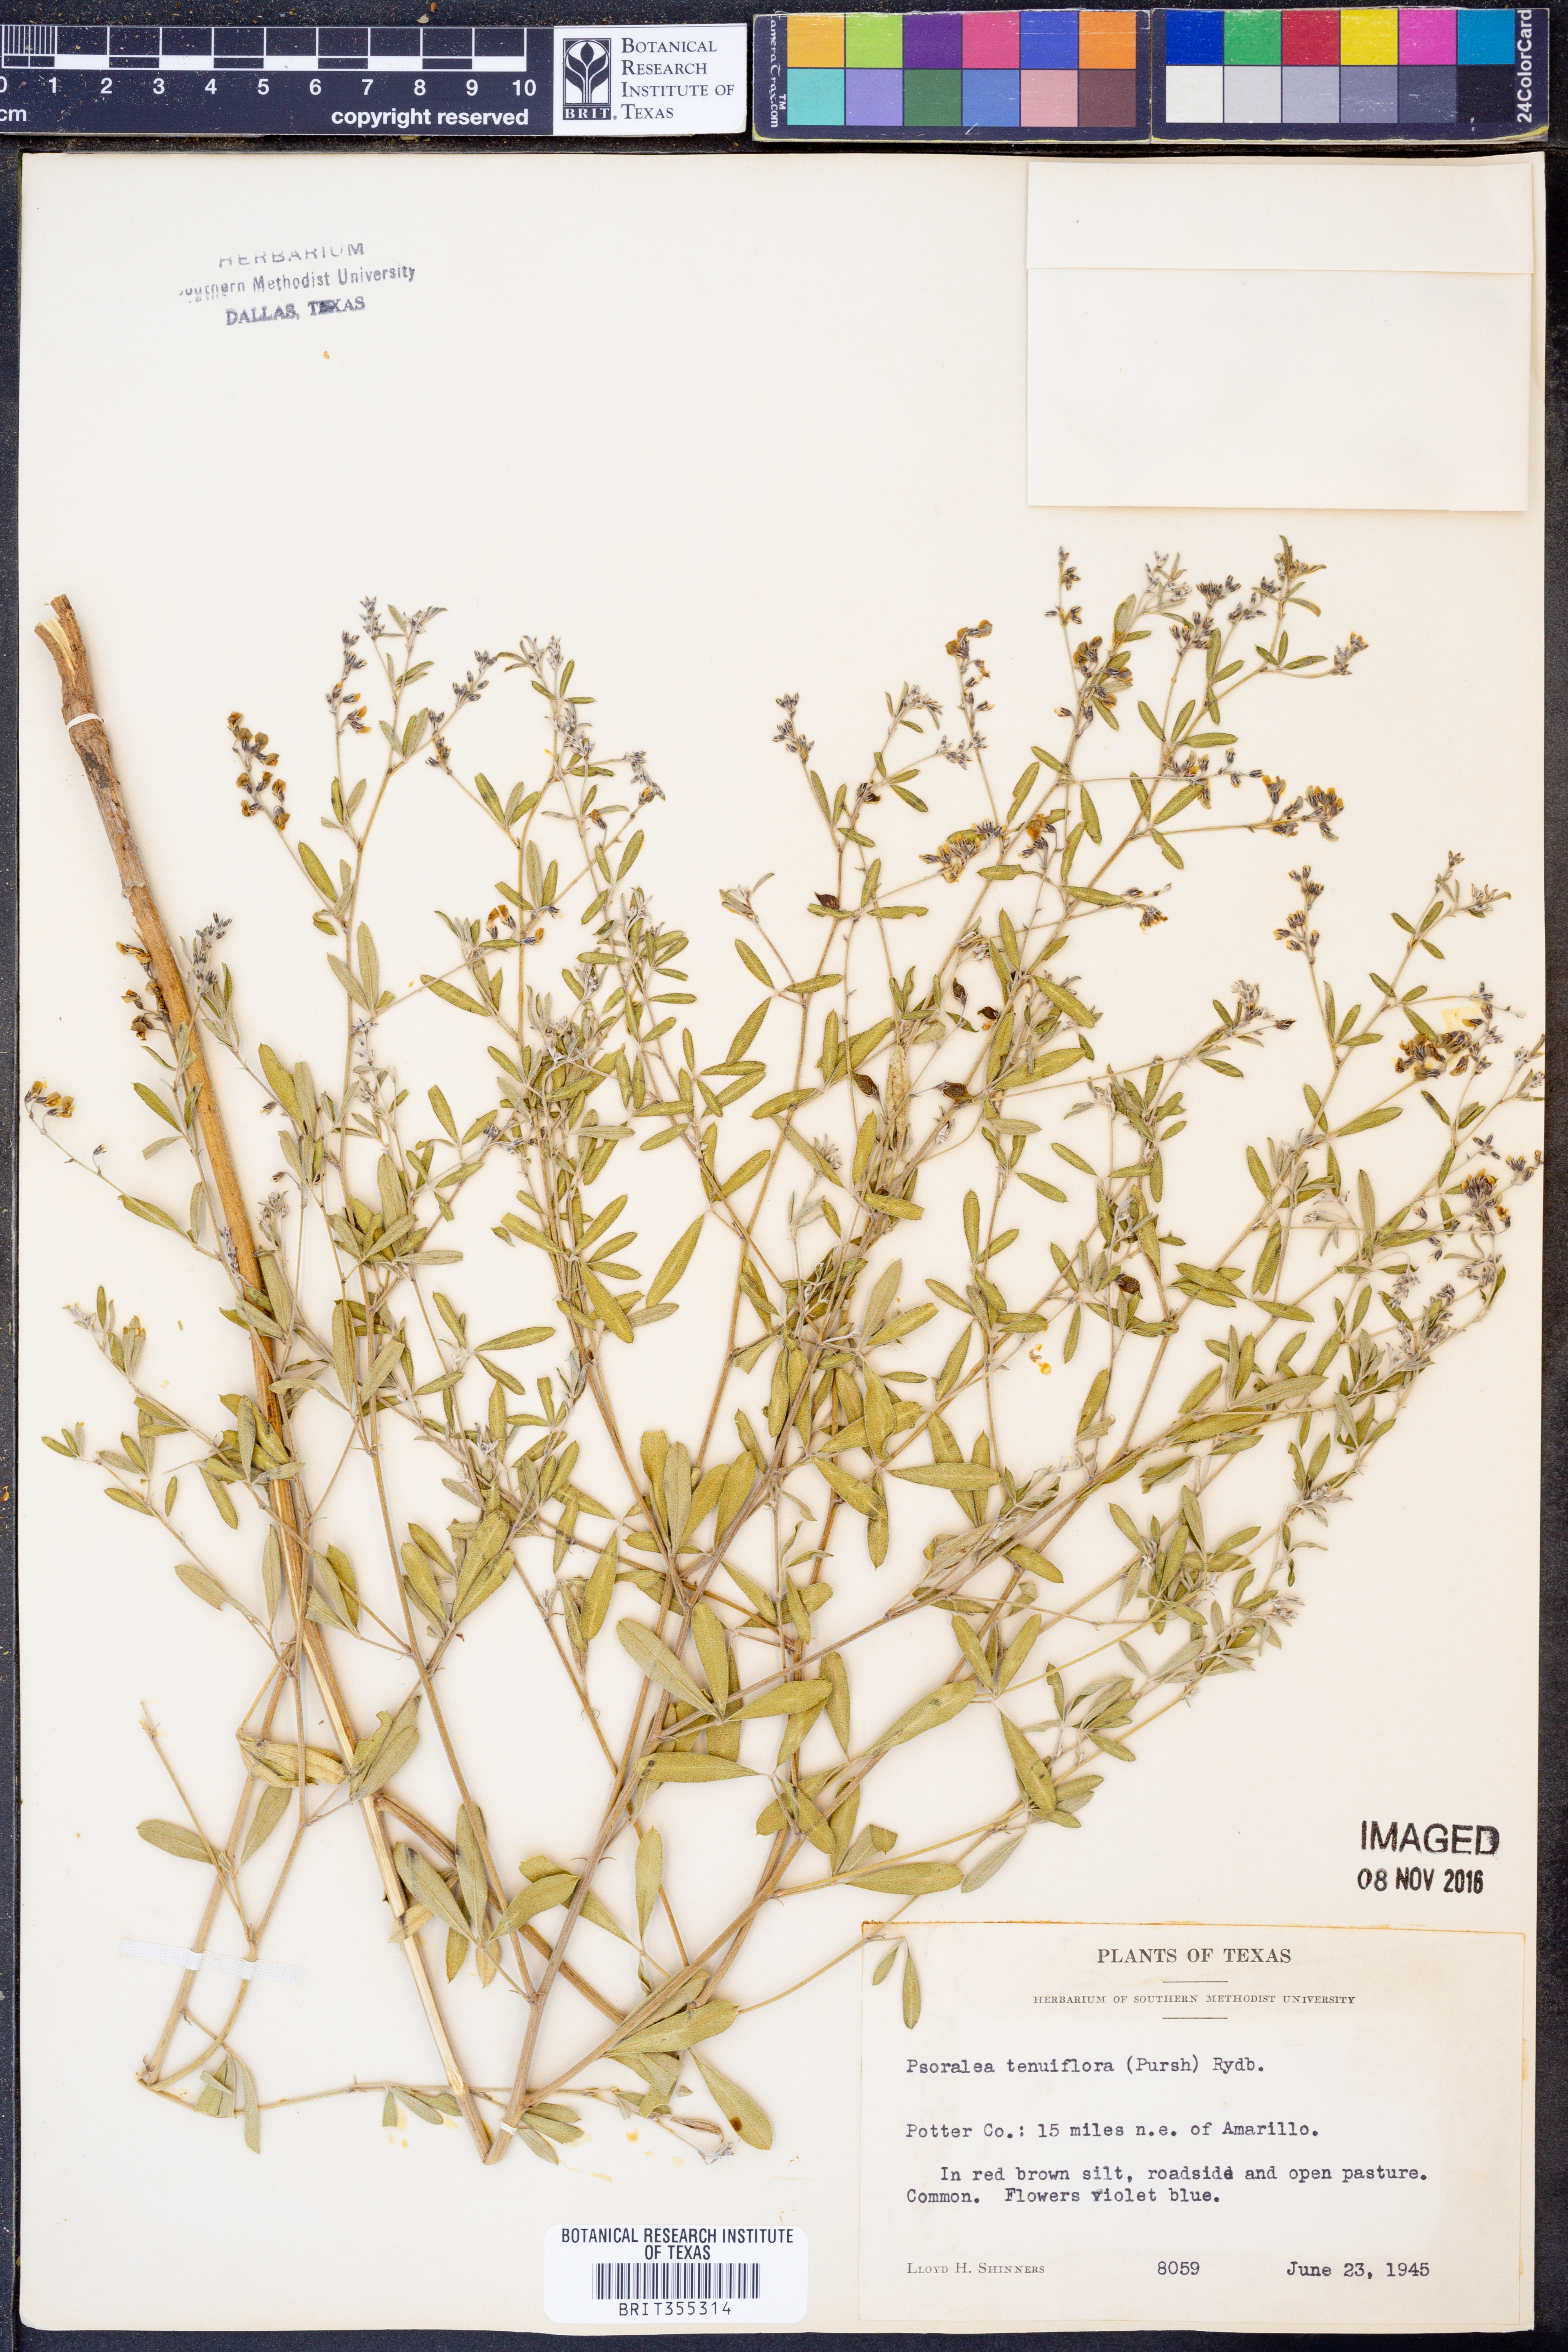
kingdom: Plantae
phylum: Tracheophyta
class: Magnoliopsida
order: Fabales
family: Fabaceae
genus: Pediomelum
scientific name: Pediomelum tenuiflorum
